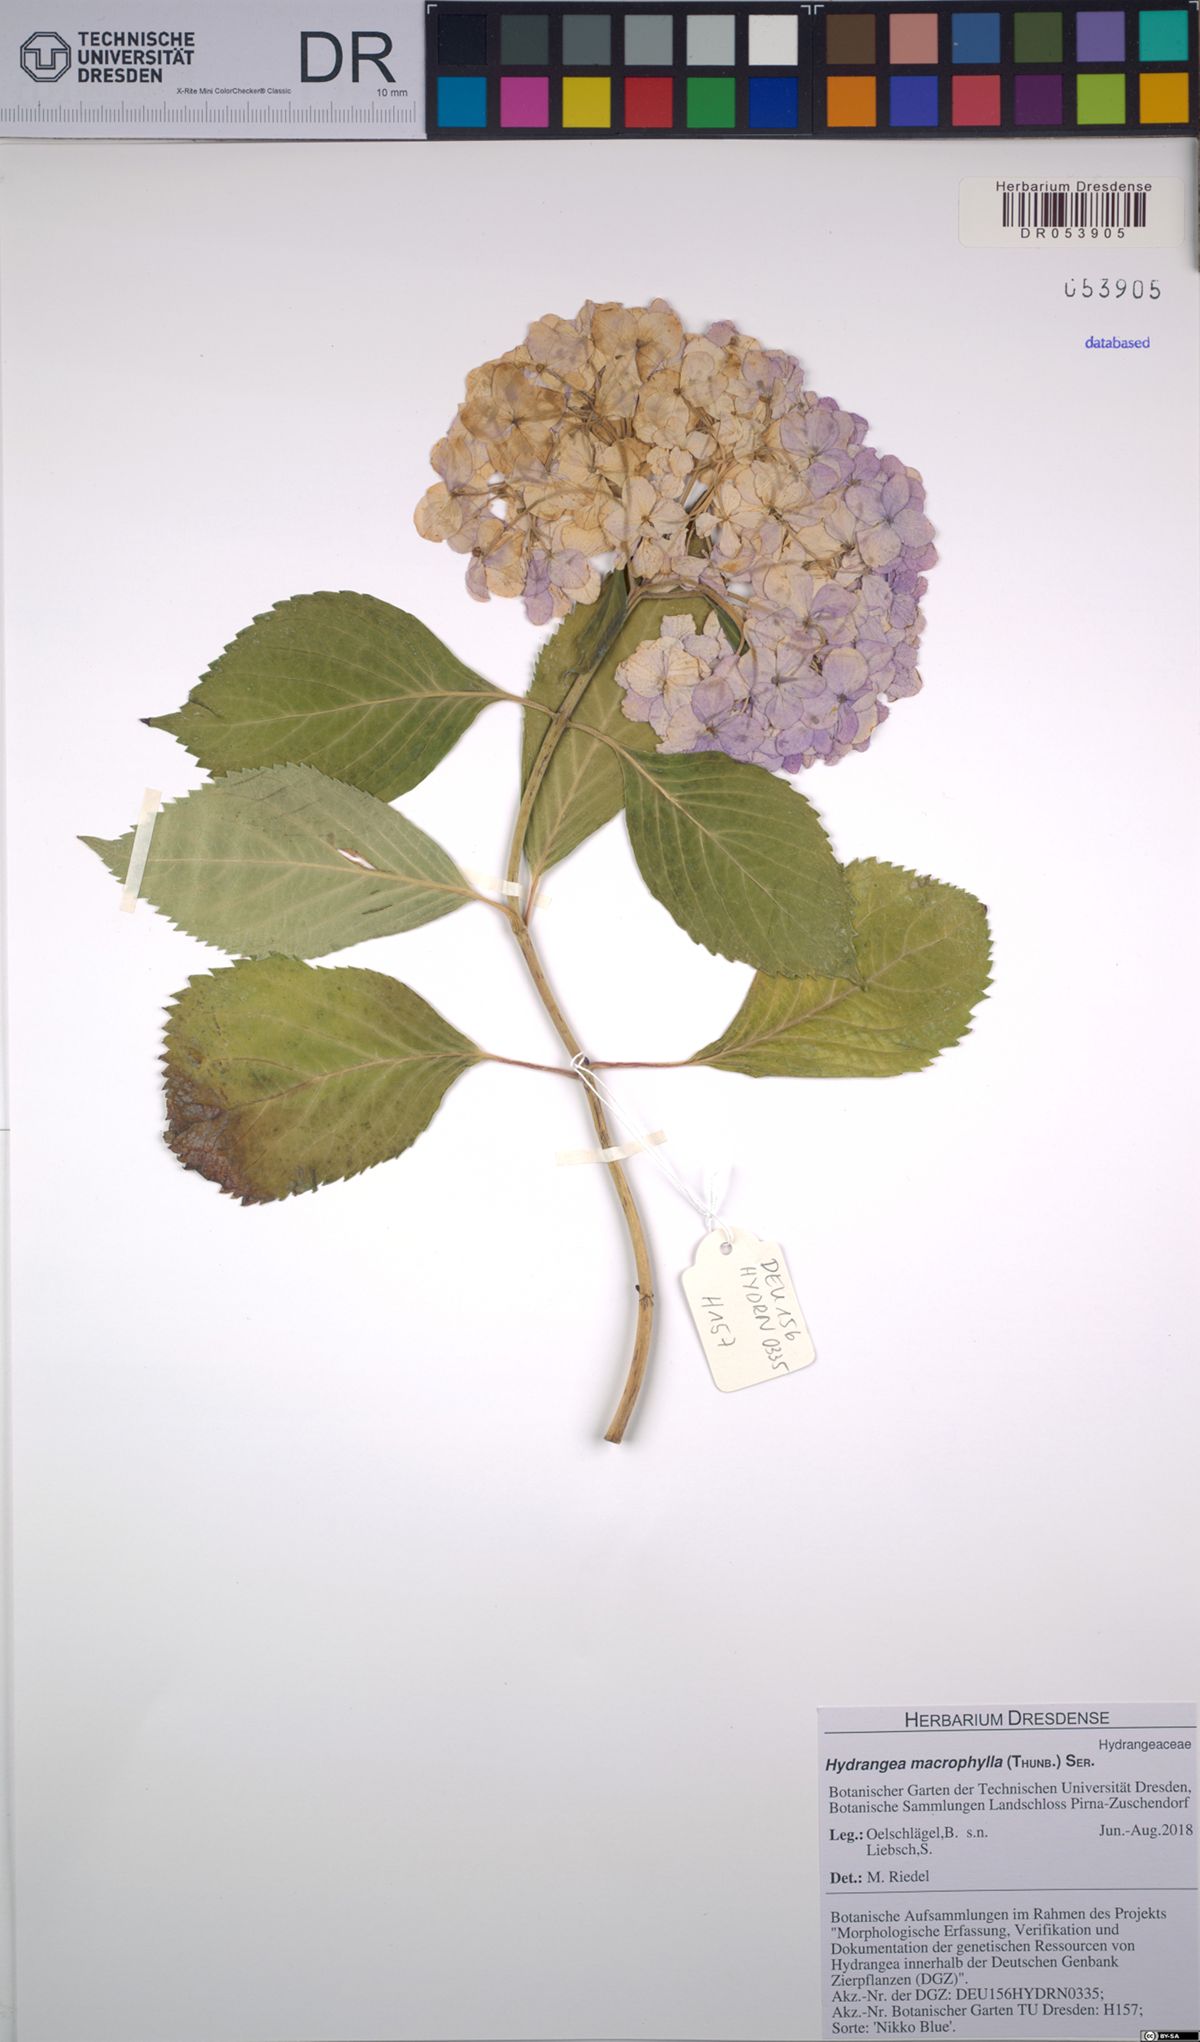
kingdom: Plantae
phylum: Tracheophyta
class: Magnoliopsida
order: Cornales
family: Hydrangeaceae
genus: Hydrangea
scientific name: Hydrangea macrophylla
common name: Hydrangea
